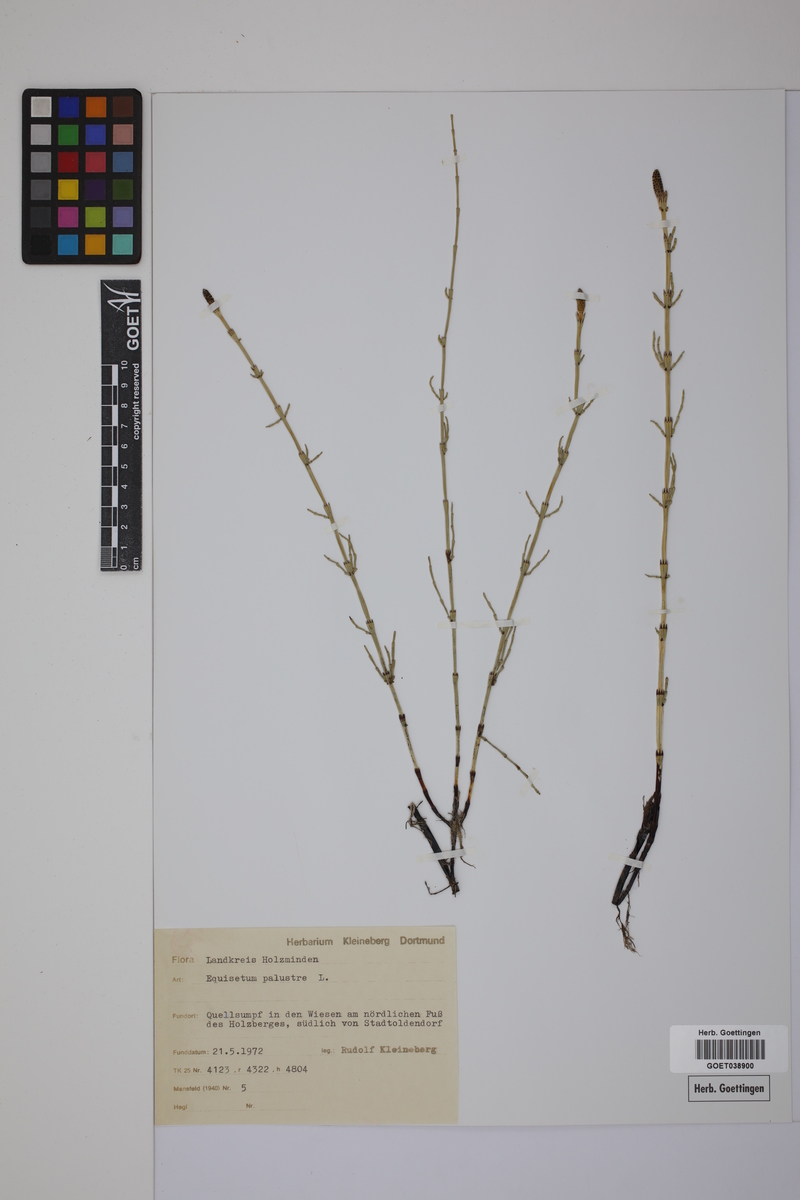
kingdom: Plantae
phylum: Tracheophyta
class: Polypodiopsida
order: Equisetales
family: Equisetaceae
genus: Equisetum
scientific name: Equisetum palustre
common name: Marsh horsetail
